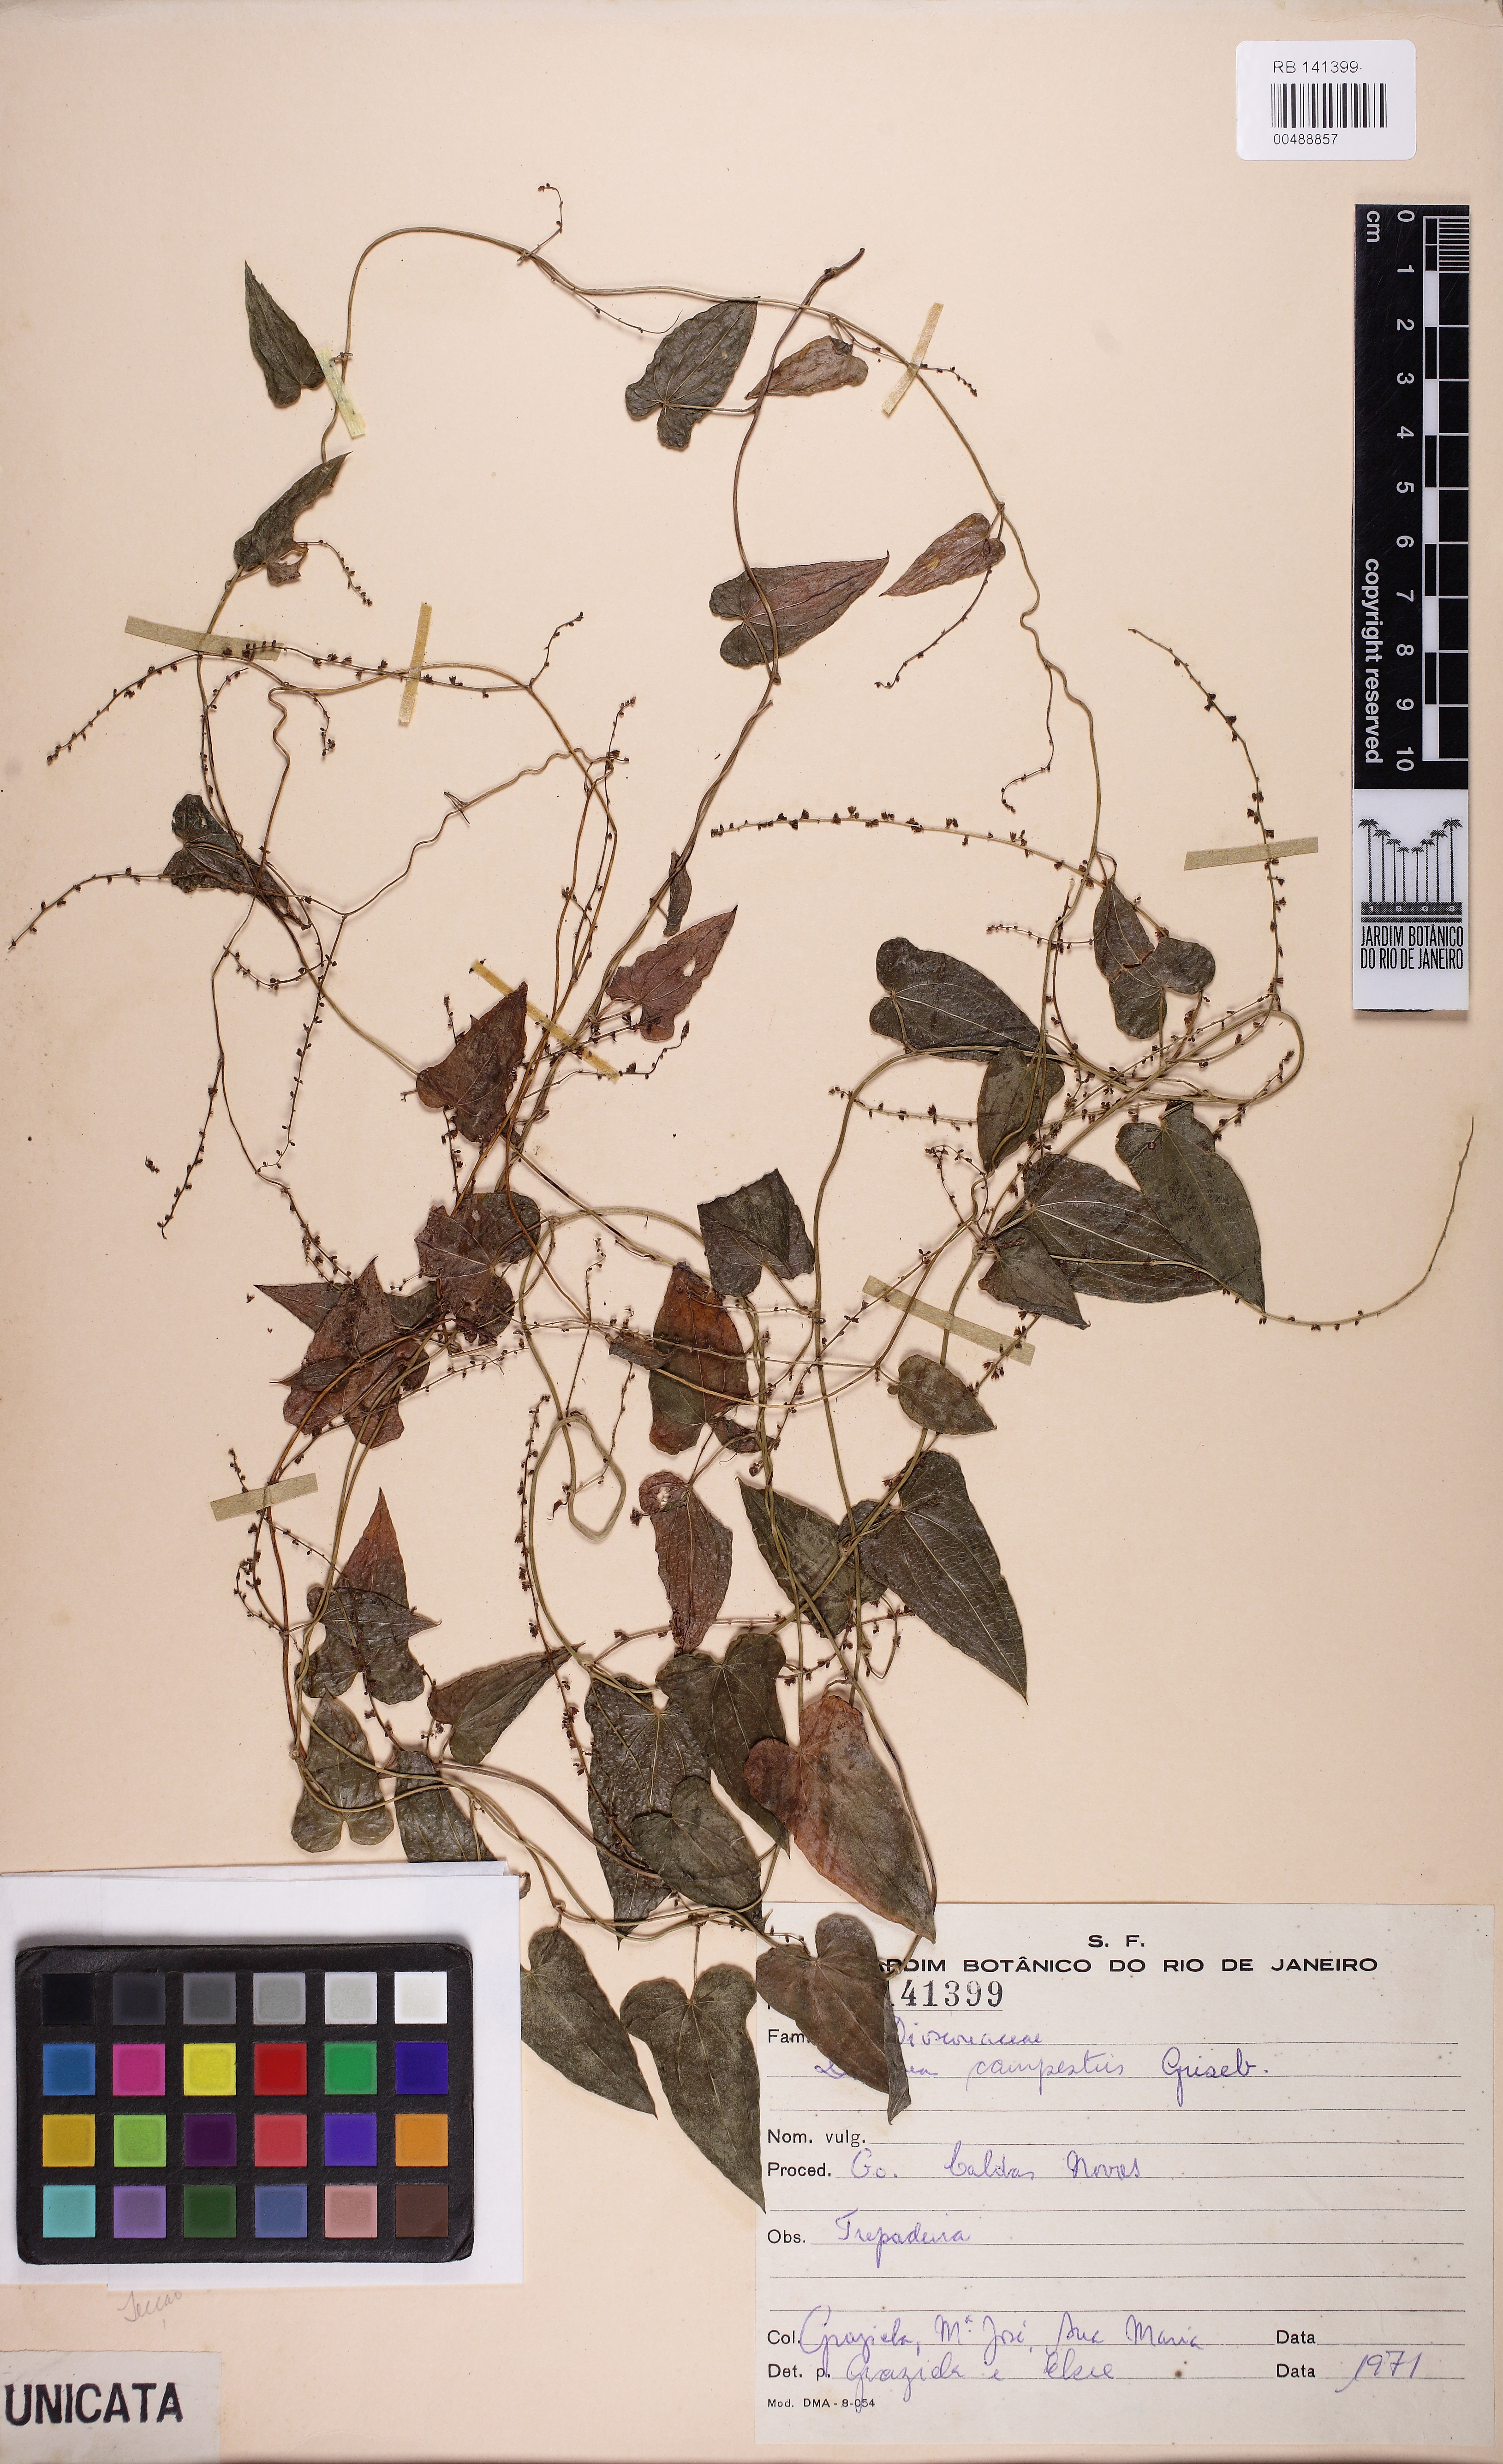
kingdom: Plantae
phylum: Tracheophyta
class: Liliopsida
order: Dioscoreales
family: Dioscoreaceae
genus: Dioscorea
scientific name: Dioscorea campestris
